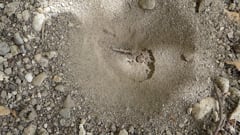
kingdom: Animalia
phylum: Arthropoda
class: Insecta
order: Neuroptera
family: Myrmeleontidae
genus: Myrmeleon
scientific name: Myrmeleon formicarius
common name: Ant-lion
